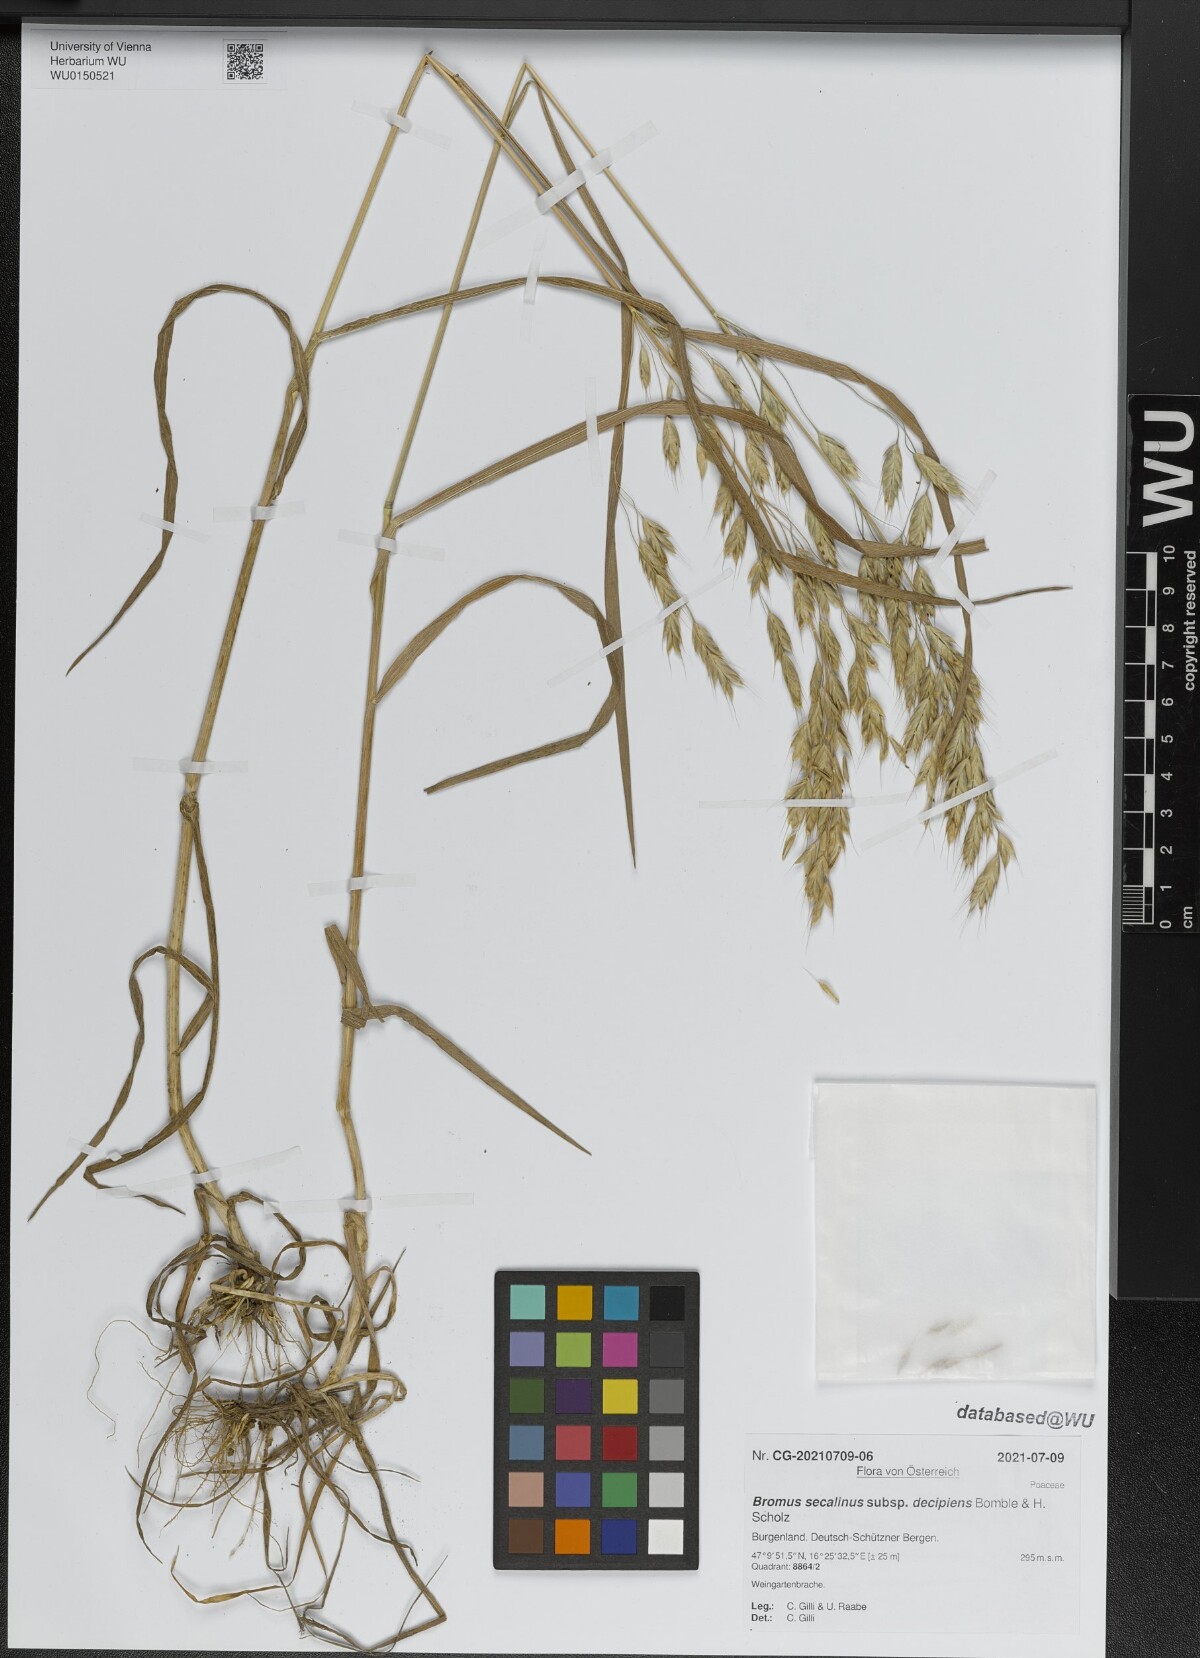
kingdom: Plantae
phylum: Tracheophyta
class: Liliopsida
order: Poales
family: Poaceae
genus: Bromus
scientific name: Bromus commutatus
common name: Meadow brome
